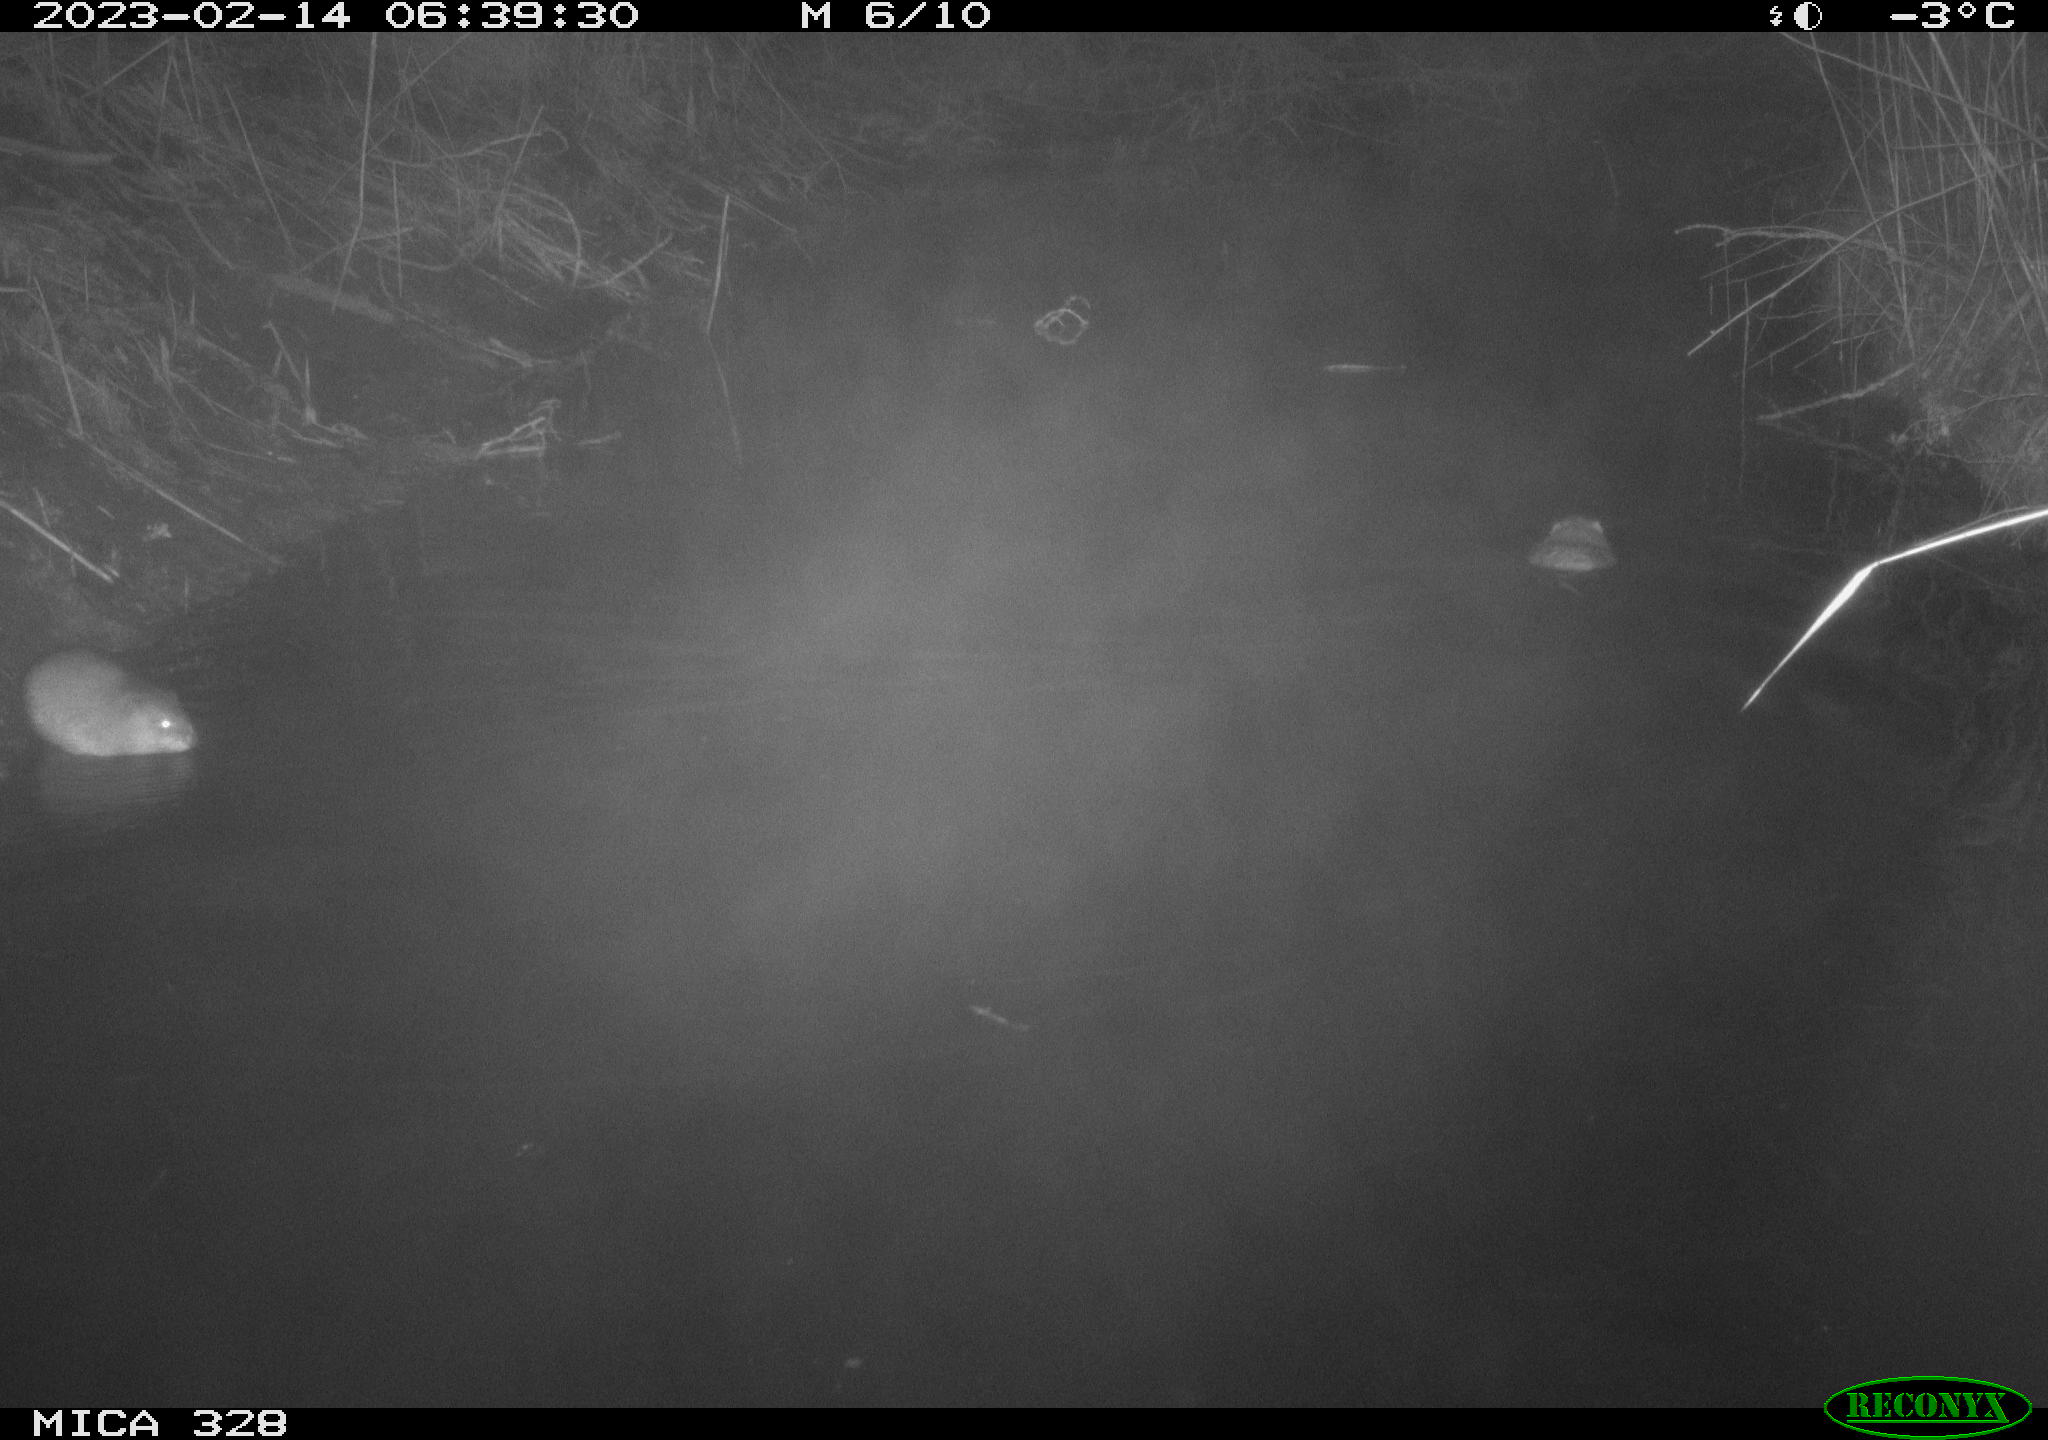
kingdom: Animalia
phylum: Chordata
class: Mammalia
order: Rodentia
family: Cricetidae
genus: Ondatra
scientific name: Ondatra zibethicus
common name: Muskrat
